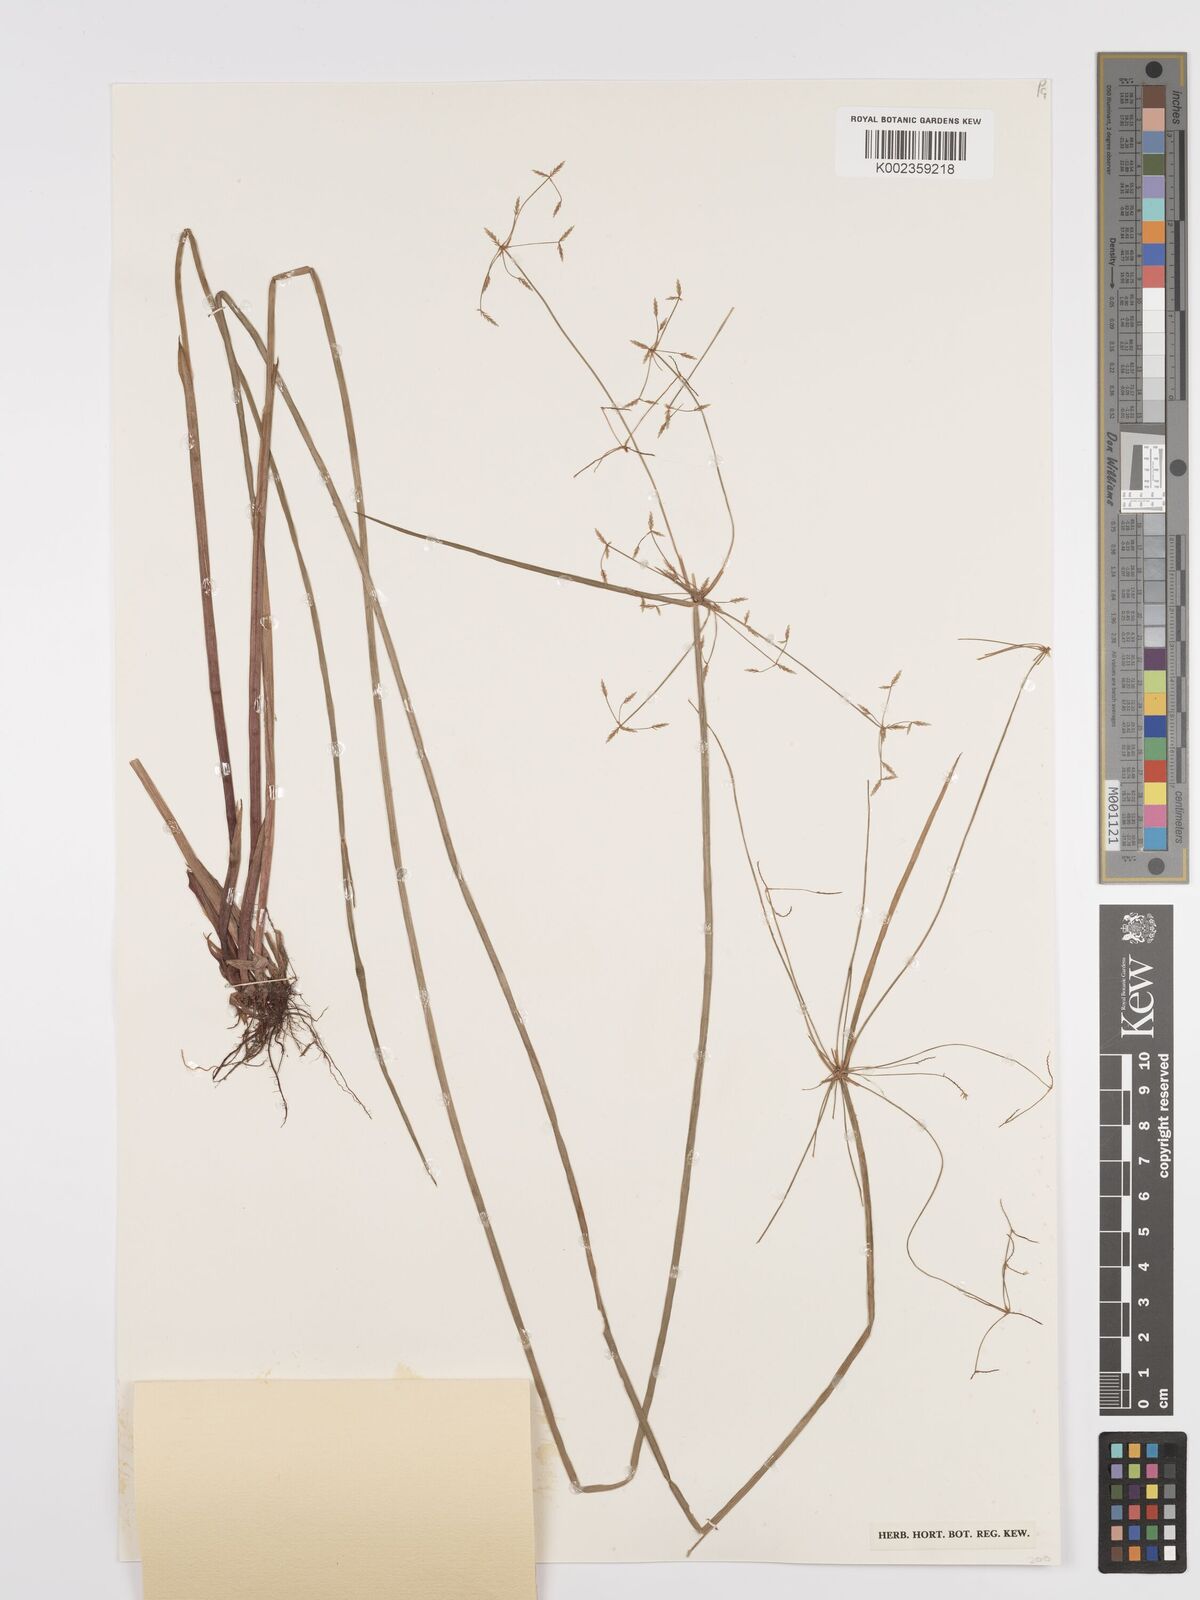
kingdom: Plantae
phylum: Tracheophyta
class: Liliopsida
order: Poales
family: Cyperaceae
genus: Cyperus
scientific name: Cyperus haspan
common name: Haspan flatsedge
